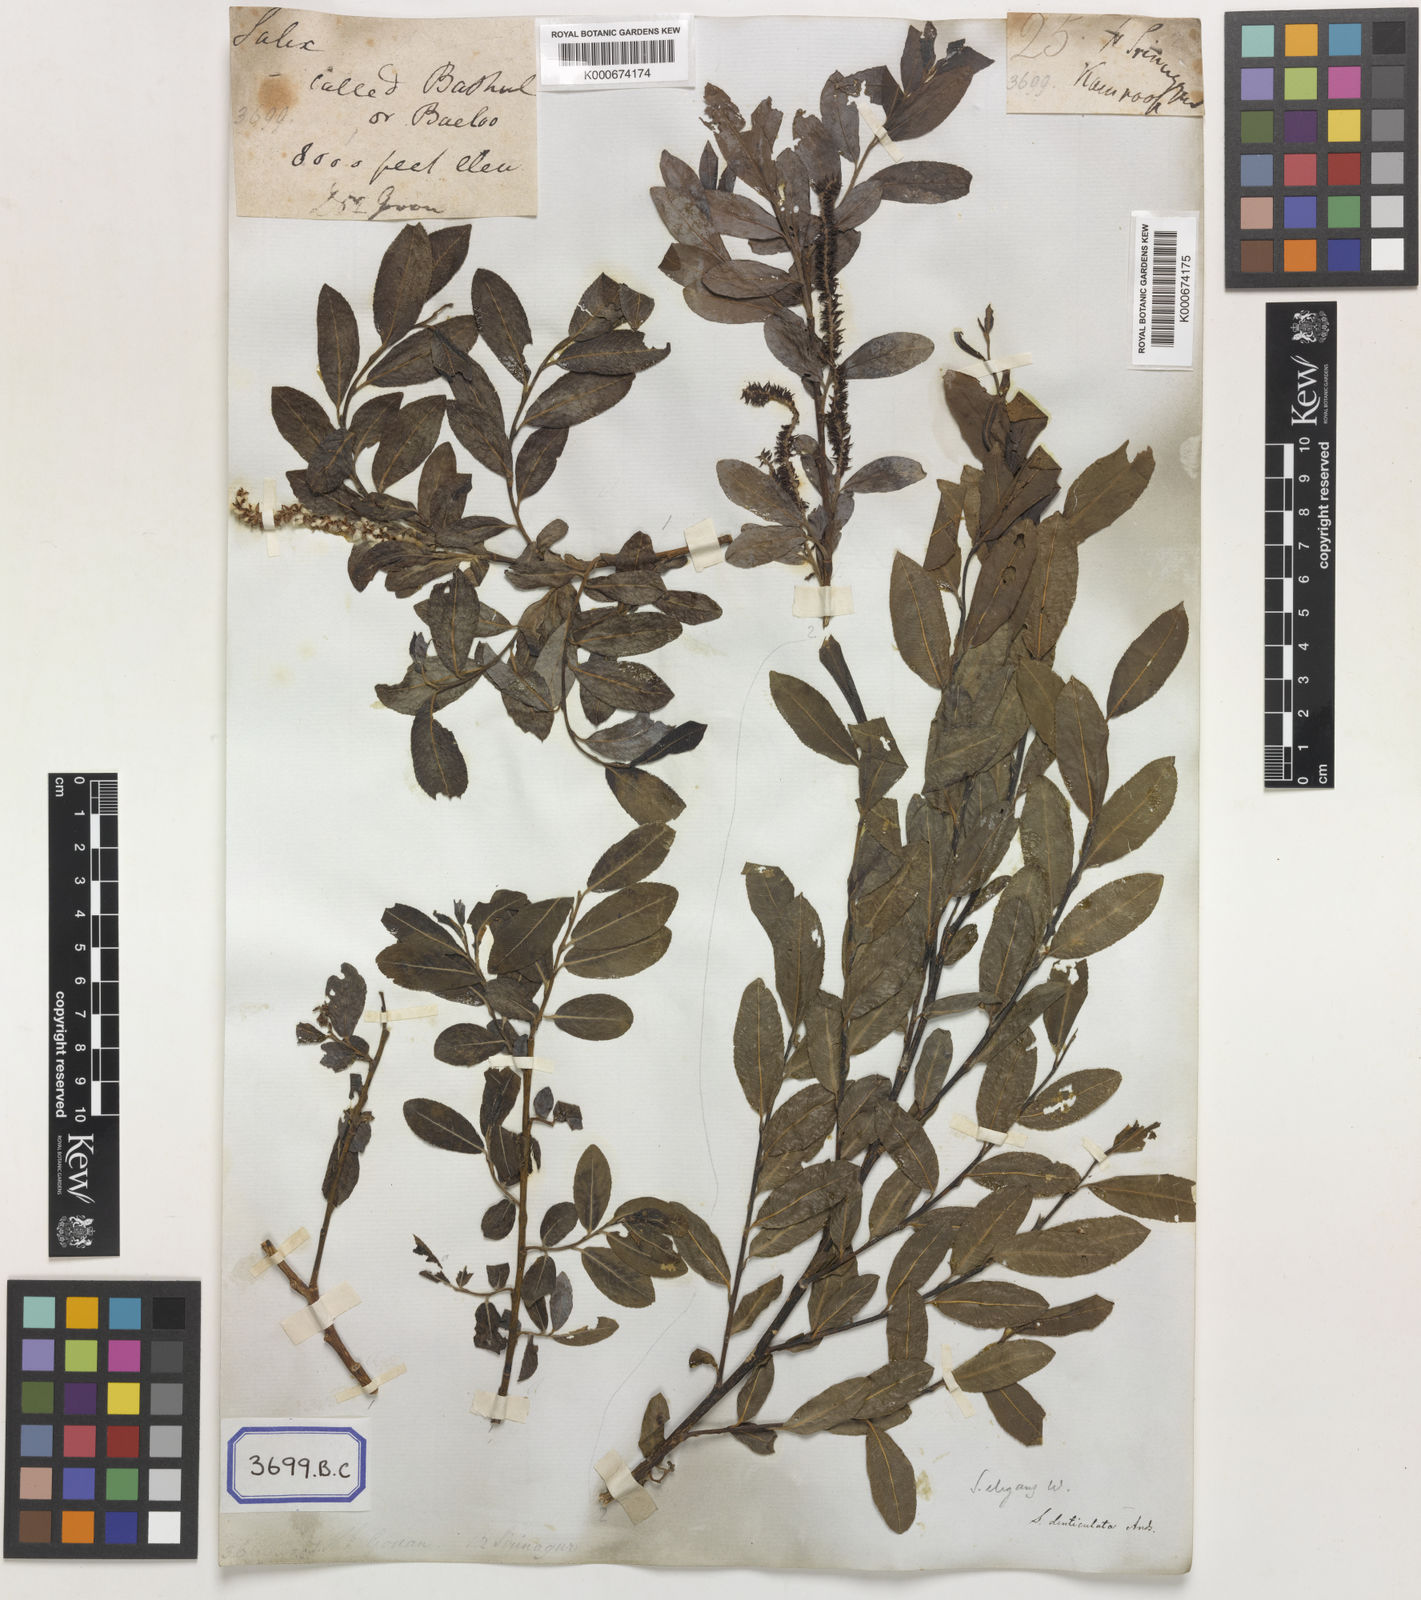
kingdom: Plantae
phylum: Tracheophyta
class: Magnoliopsida
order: Malpighiales
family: Salicaceae
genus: Salix
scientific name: Salix denticulata
